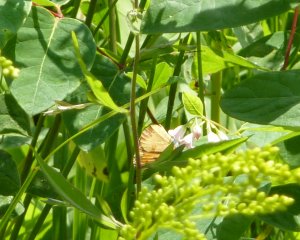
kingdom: Animalia
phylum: Arthropoda
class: Insecta
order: Lepidoptera
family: Nymphalidae
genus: Phyciodes
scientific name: Phyciodes tharos
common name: Northern Crescent
